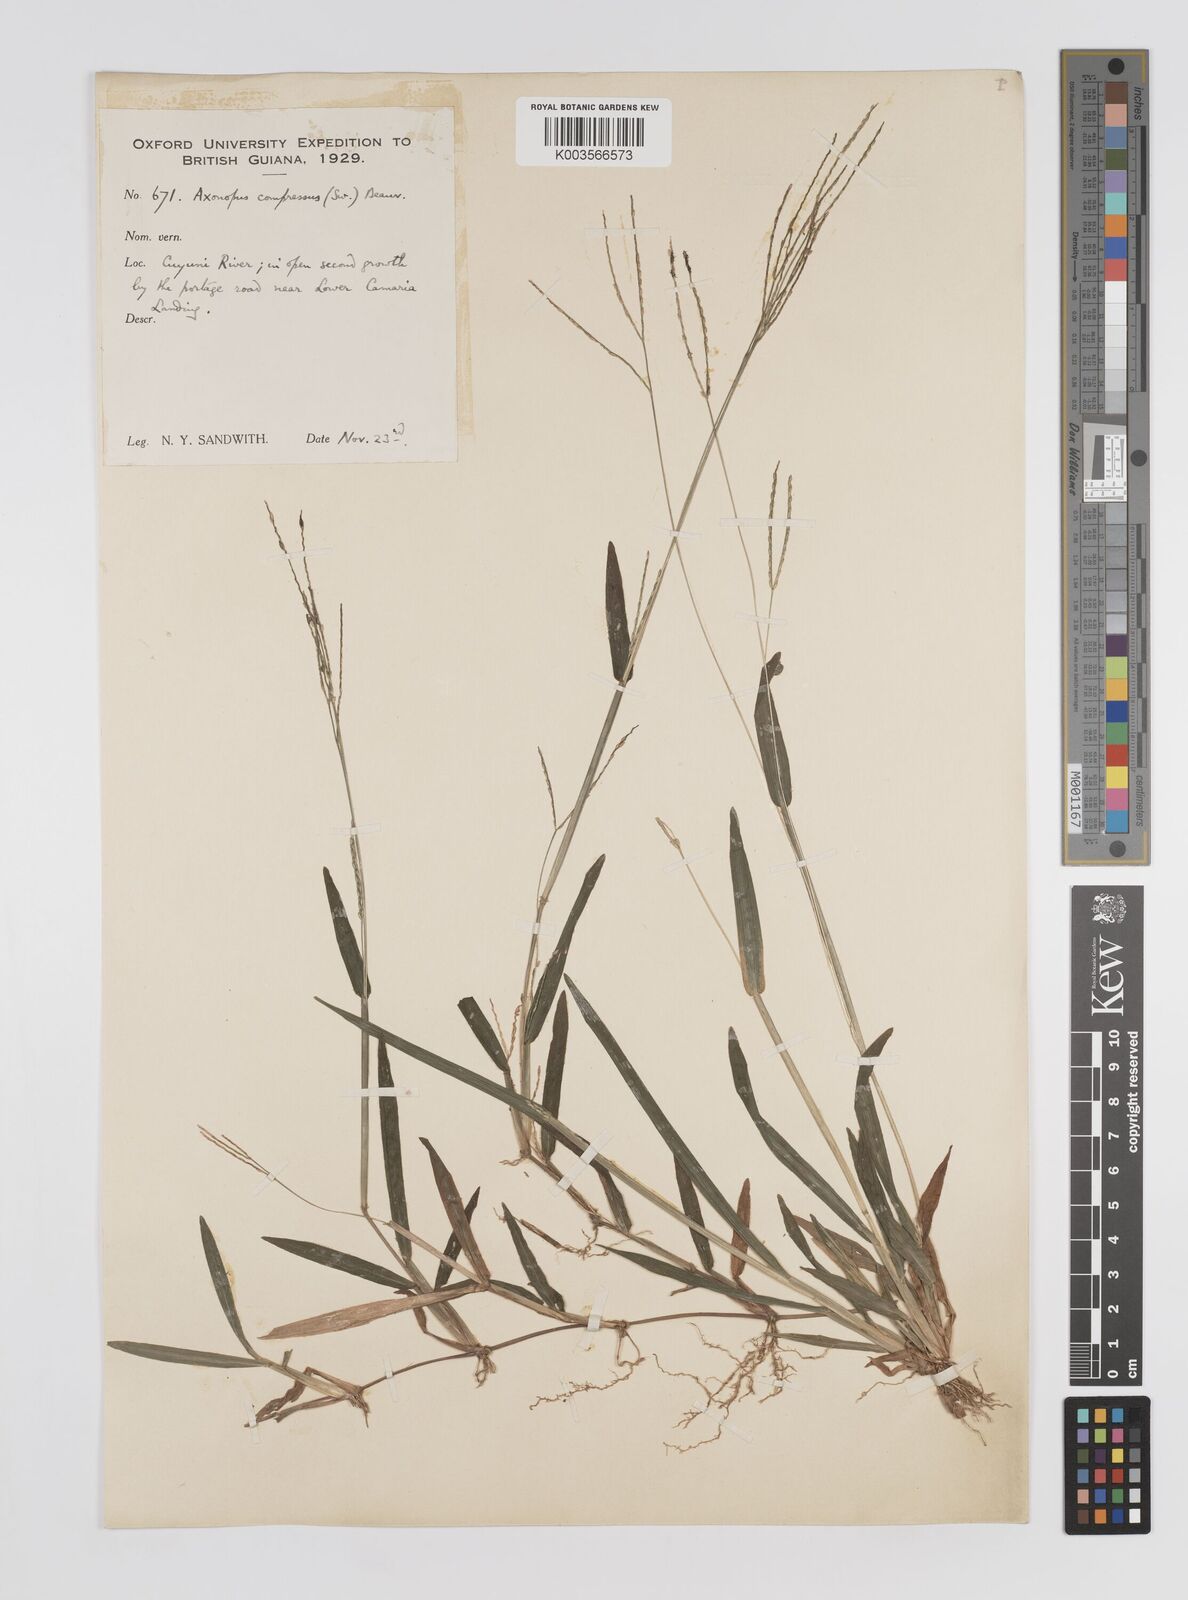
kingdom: Plantae
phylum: Tracheophyta
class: Liliopsida
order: Poales
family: Poaceae
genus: Axonopus
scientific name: Axonopus compressus
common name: American carpet grass
